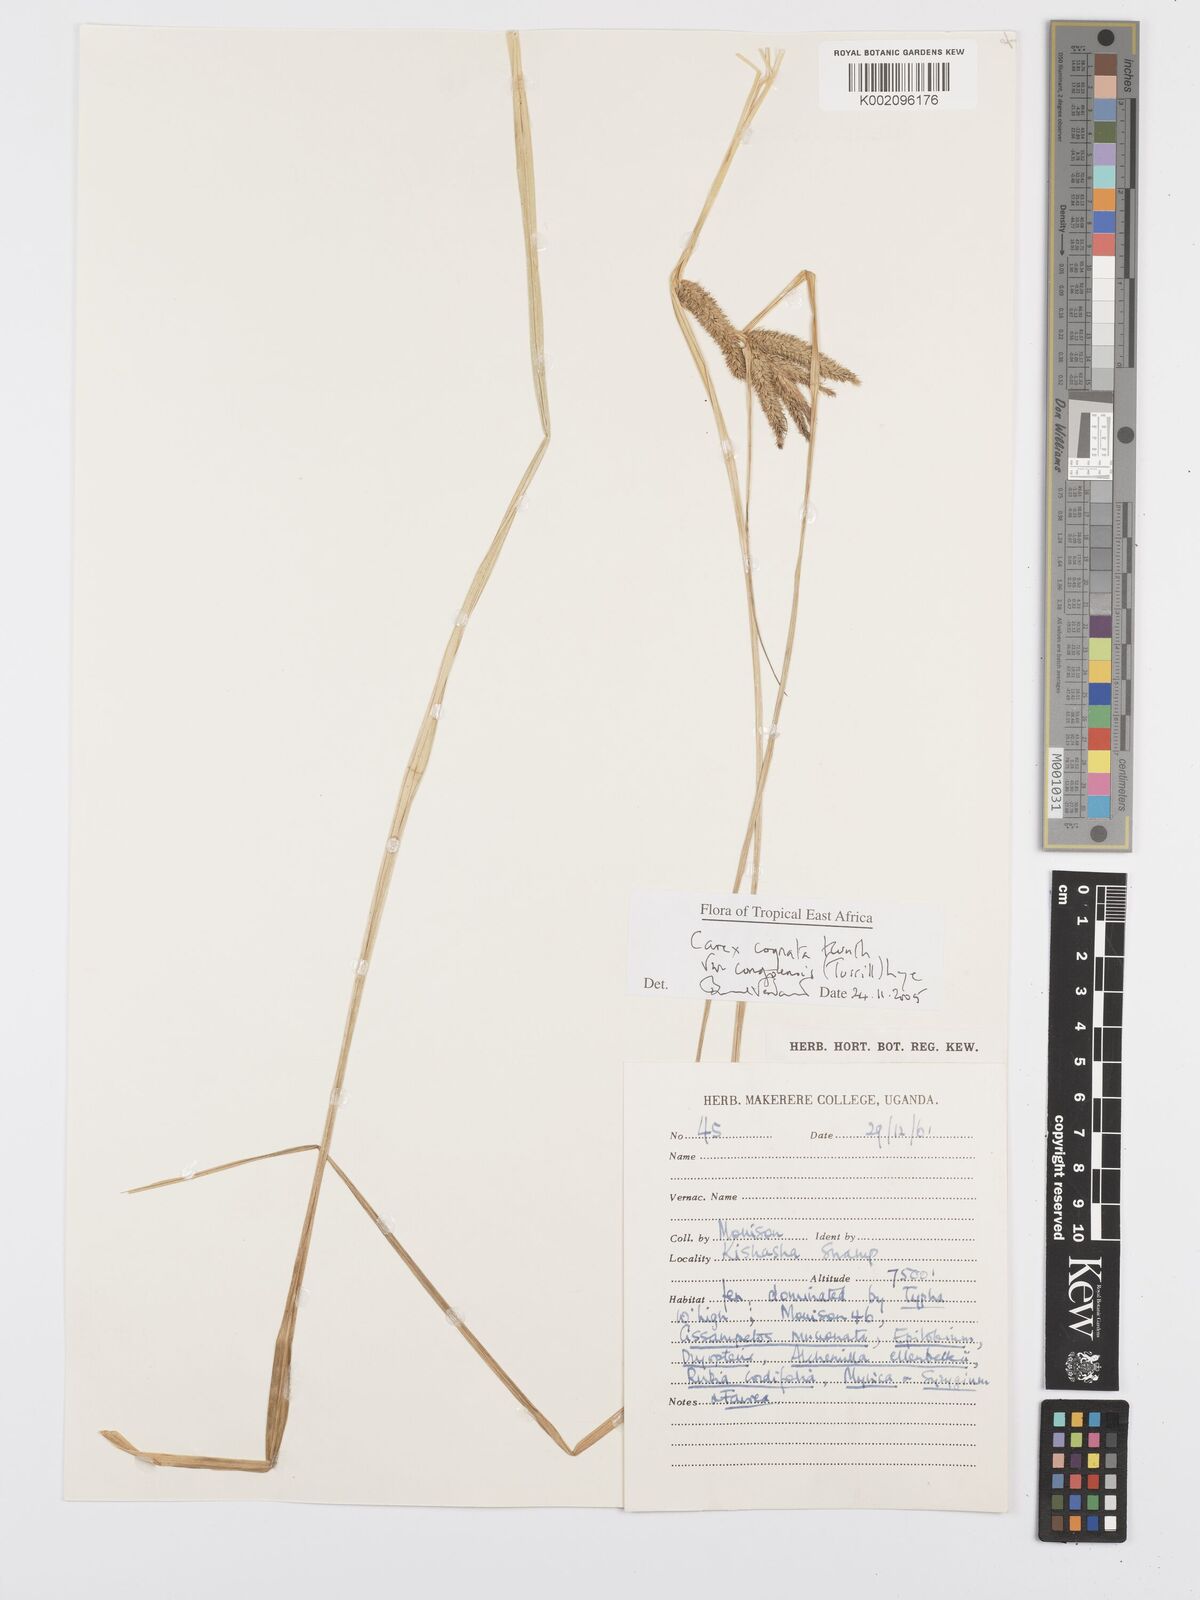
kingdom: Plantae
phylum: Tracheophyta
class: Liliopsida
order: Poales
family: Cyperaceae
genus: Carex
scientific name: Carex cognata
